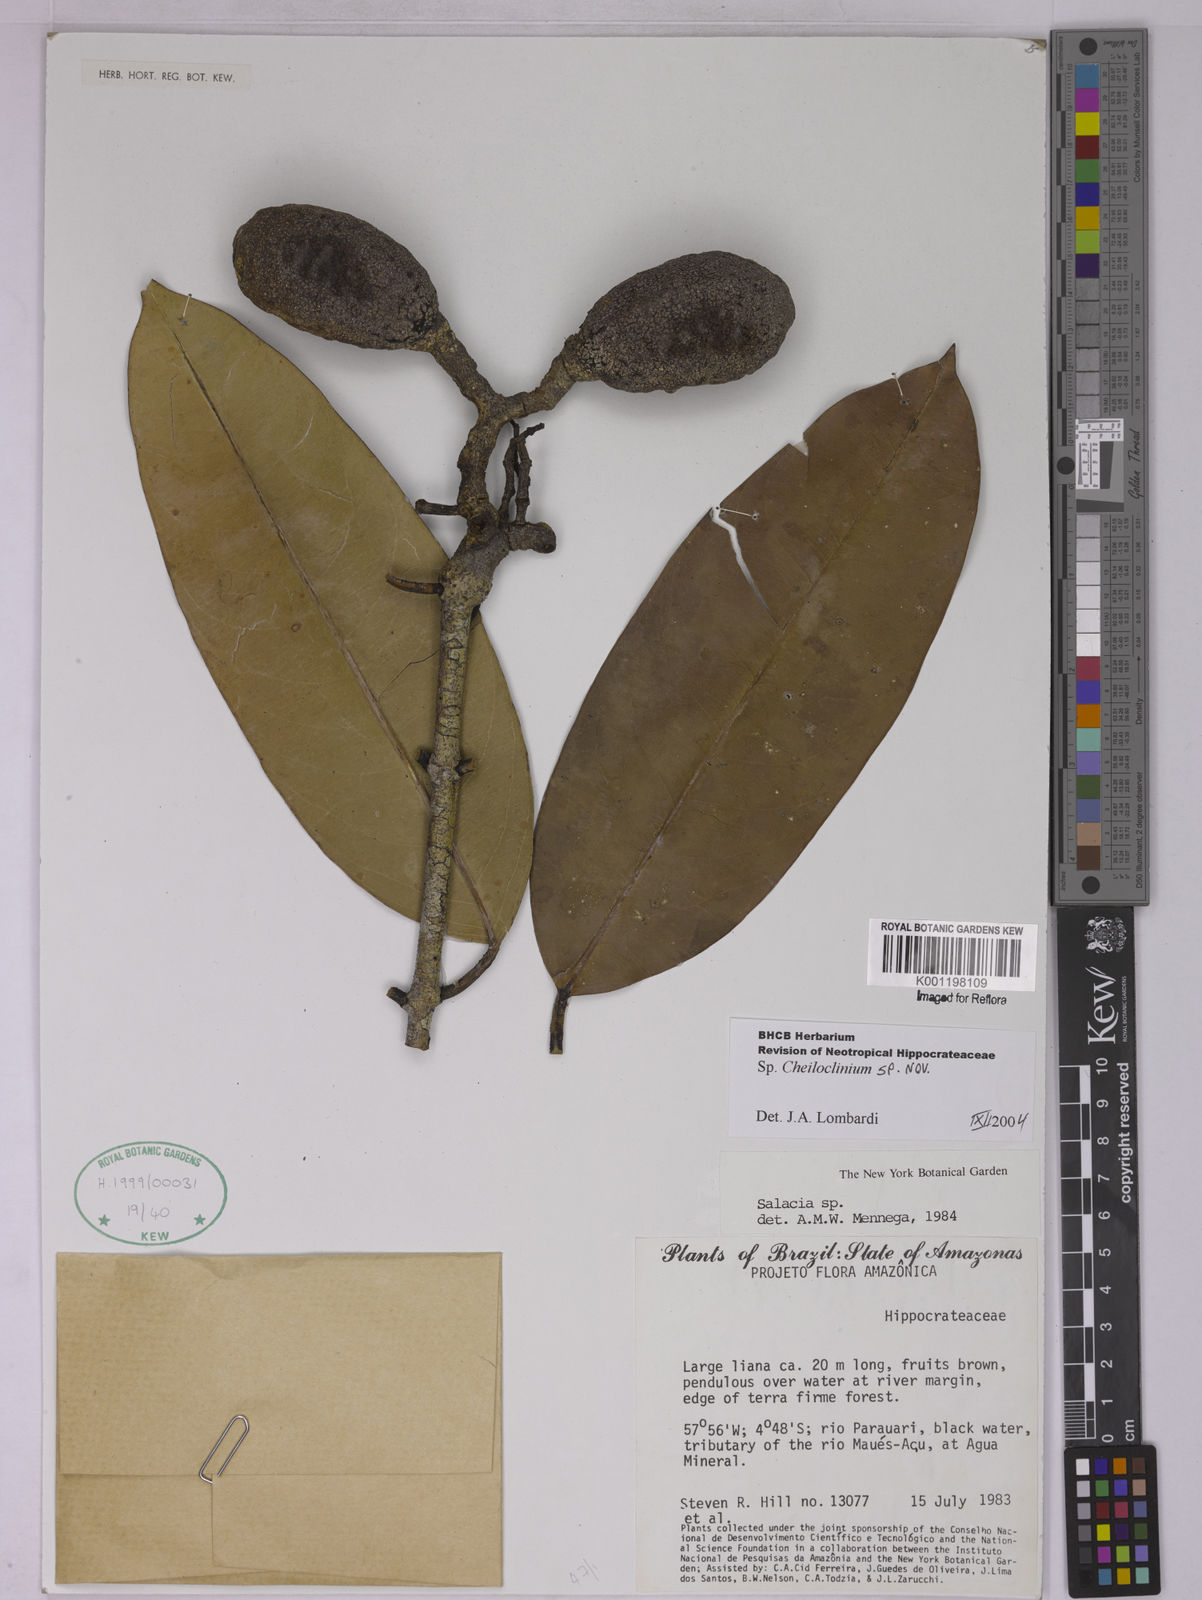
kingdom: Plantae
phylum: Tracheophyta
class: Magnoliopsida
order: Celastrales
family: Celastraceae
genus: Cheiloclinium
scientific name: Cheiloclinium
